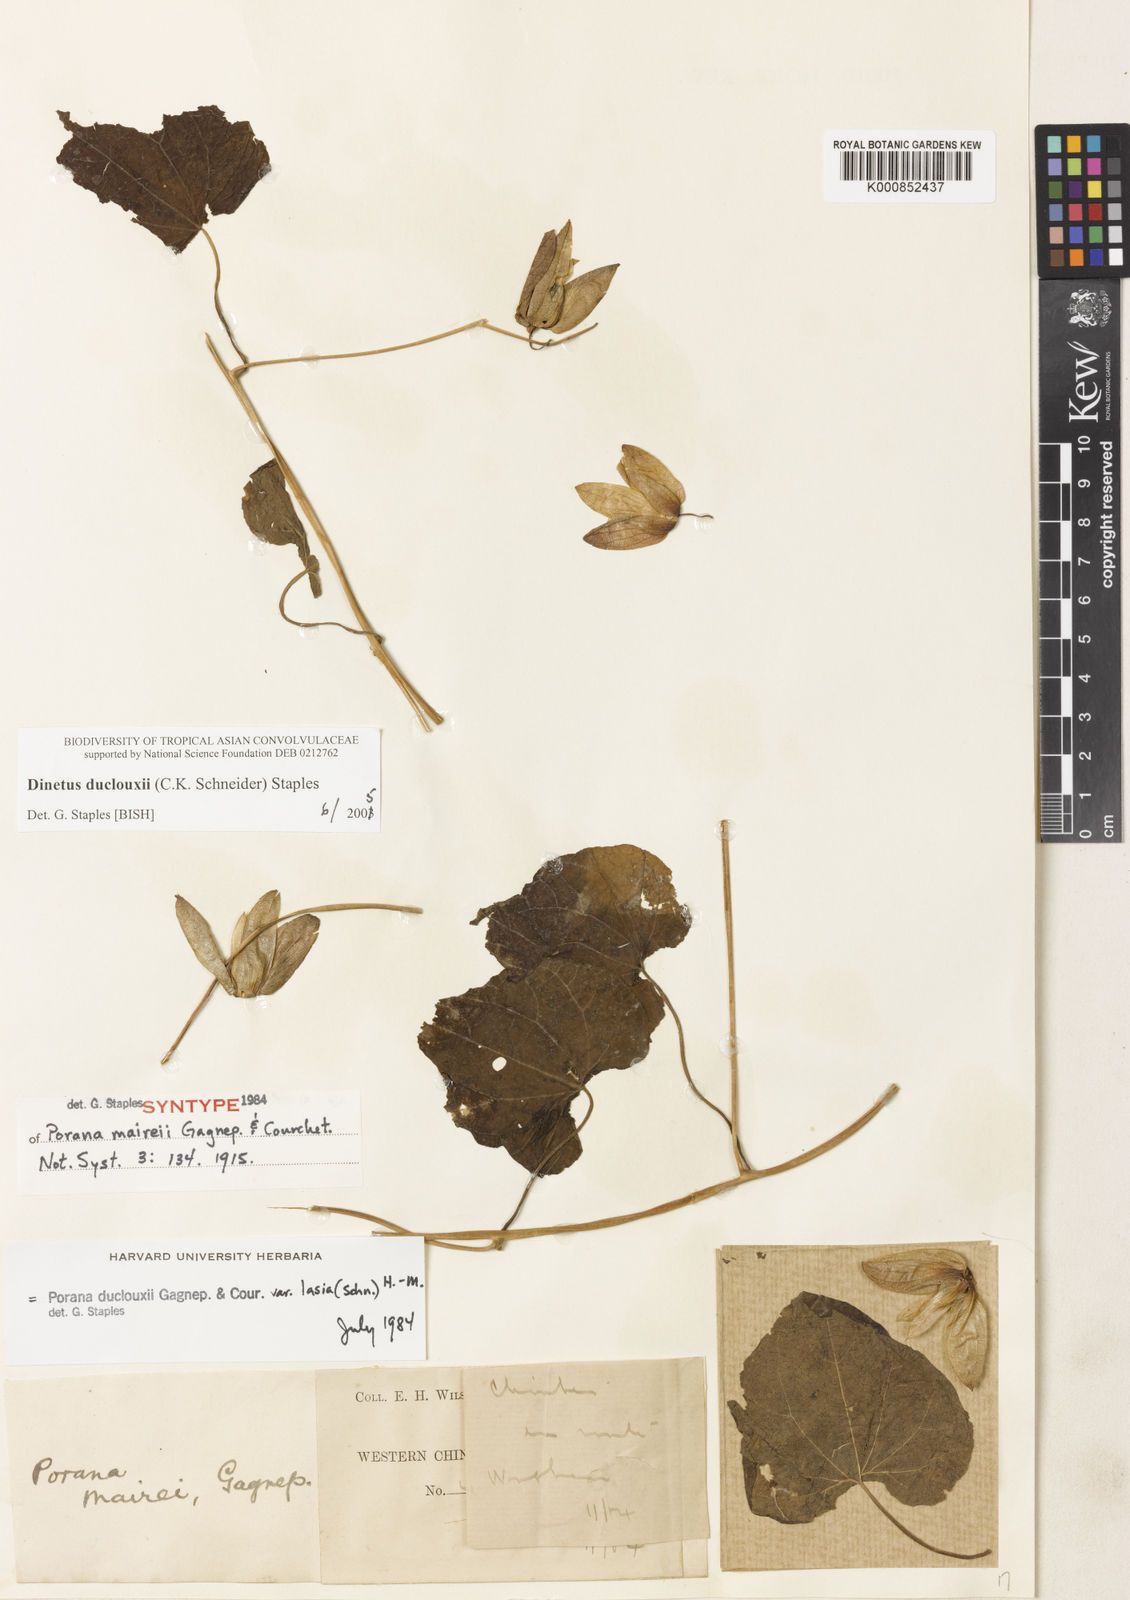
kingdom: Plantae
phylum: Tracheophyta
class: Magnoliopsida
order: Solanales
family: Convolvulaceae
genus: Dinetus
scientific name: Dinetus duclouxii
